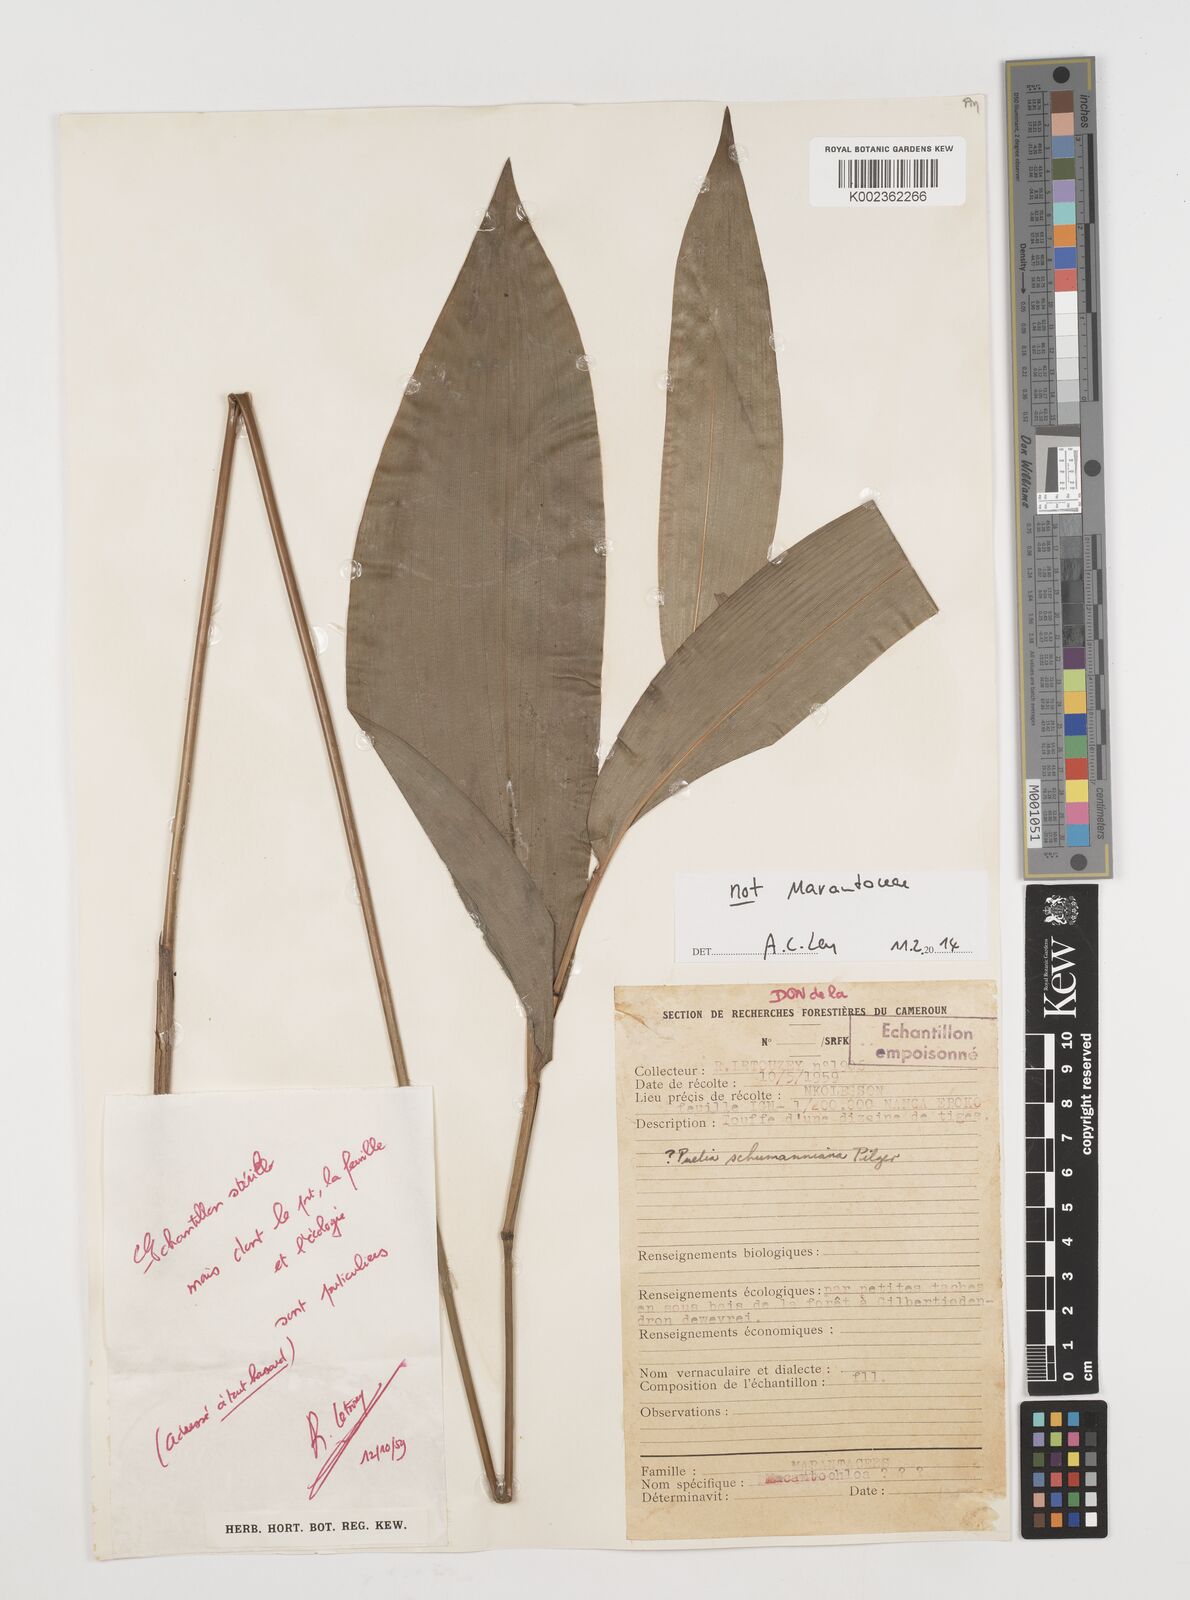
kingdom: Plantae
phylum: Tracheophyta
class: Liliopsida
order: Poales
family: Poaceae
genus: Puelia
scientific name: Puelia schumanniana
